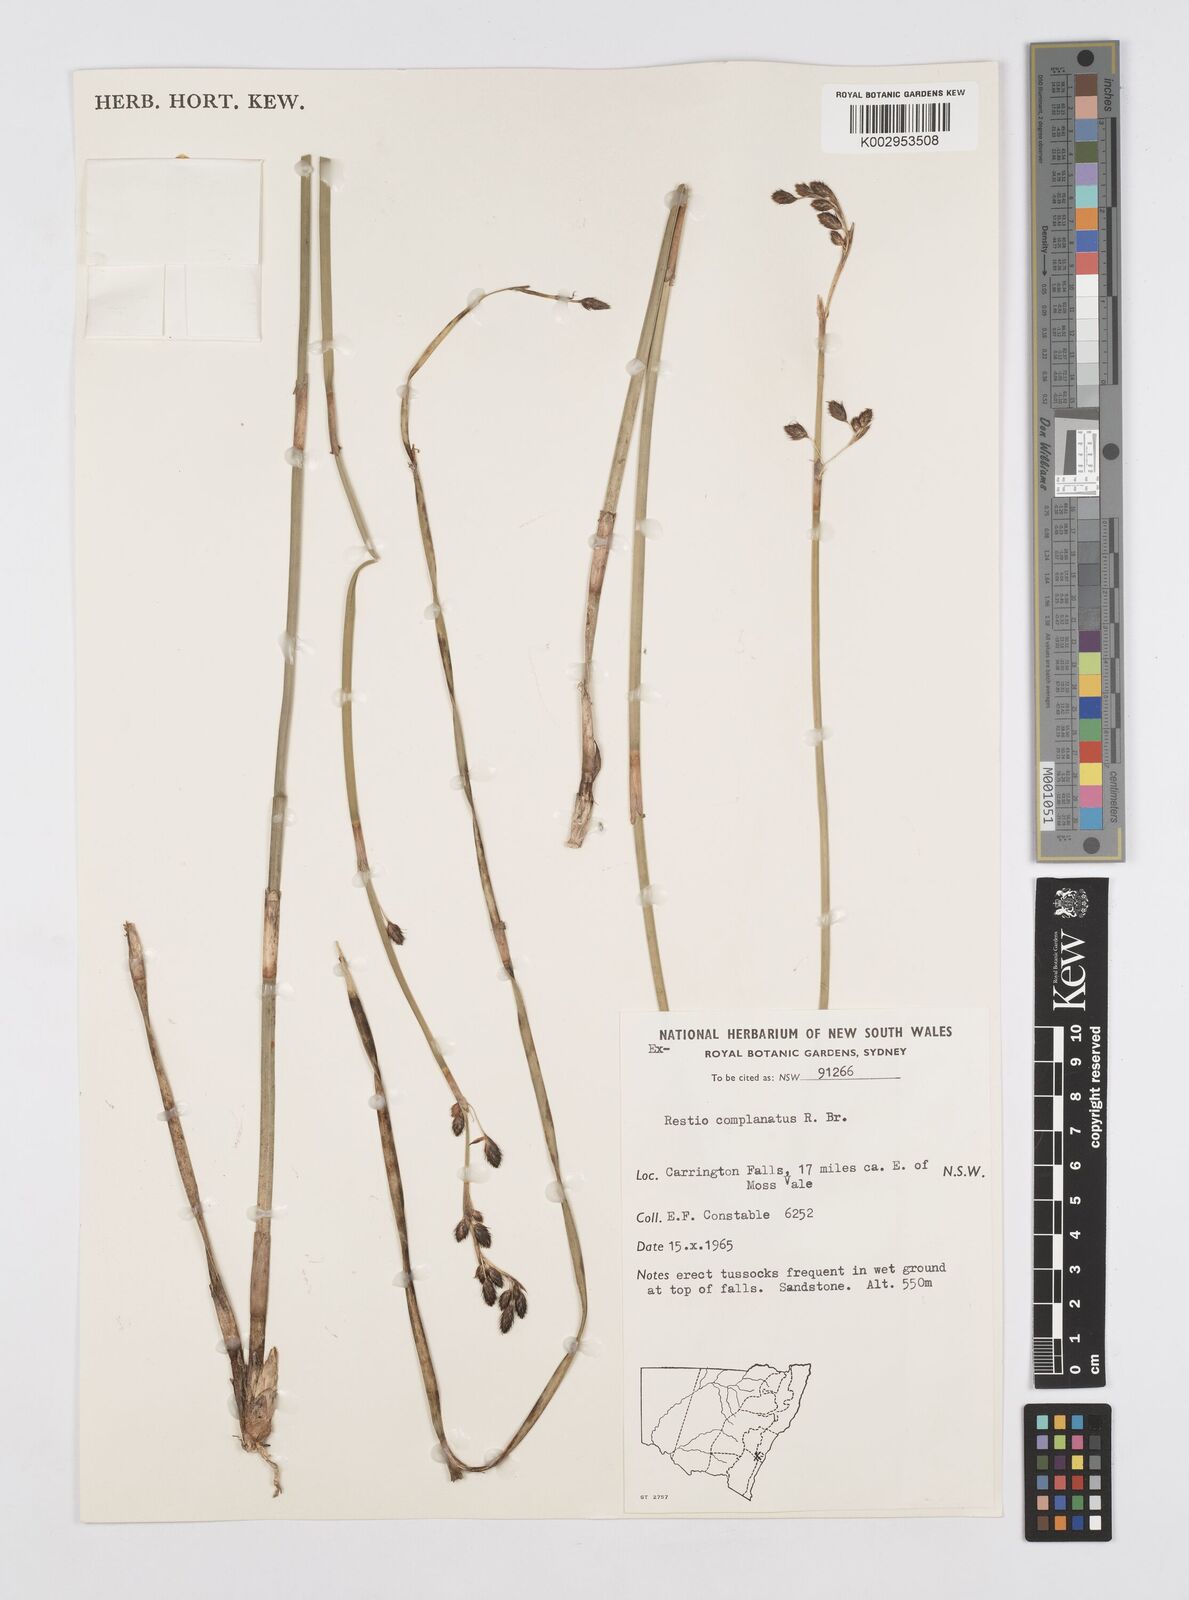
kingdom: Plantae
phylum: Tracheophyta
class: Liliopsida
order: Poales
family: Restionaceae
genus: Eurychorda
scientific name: Eurychorda complanata
